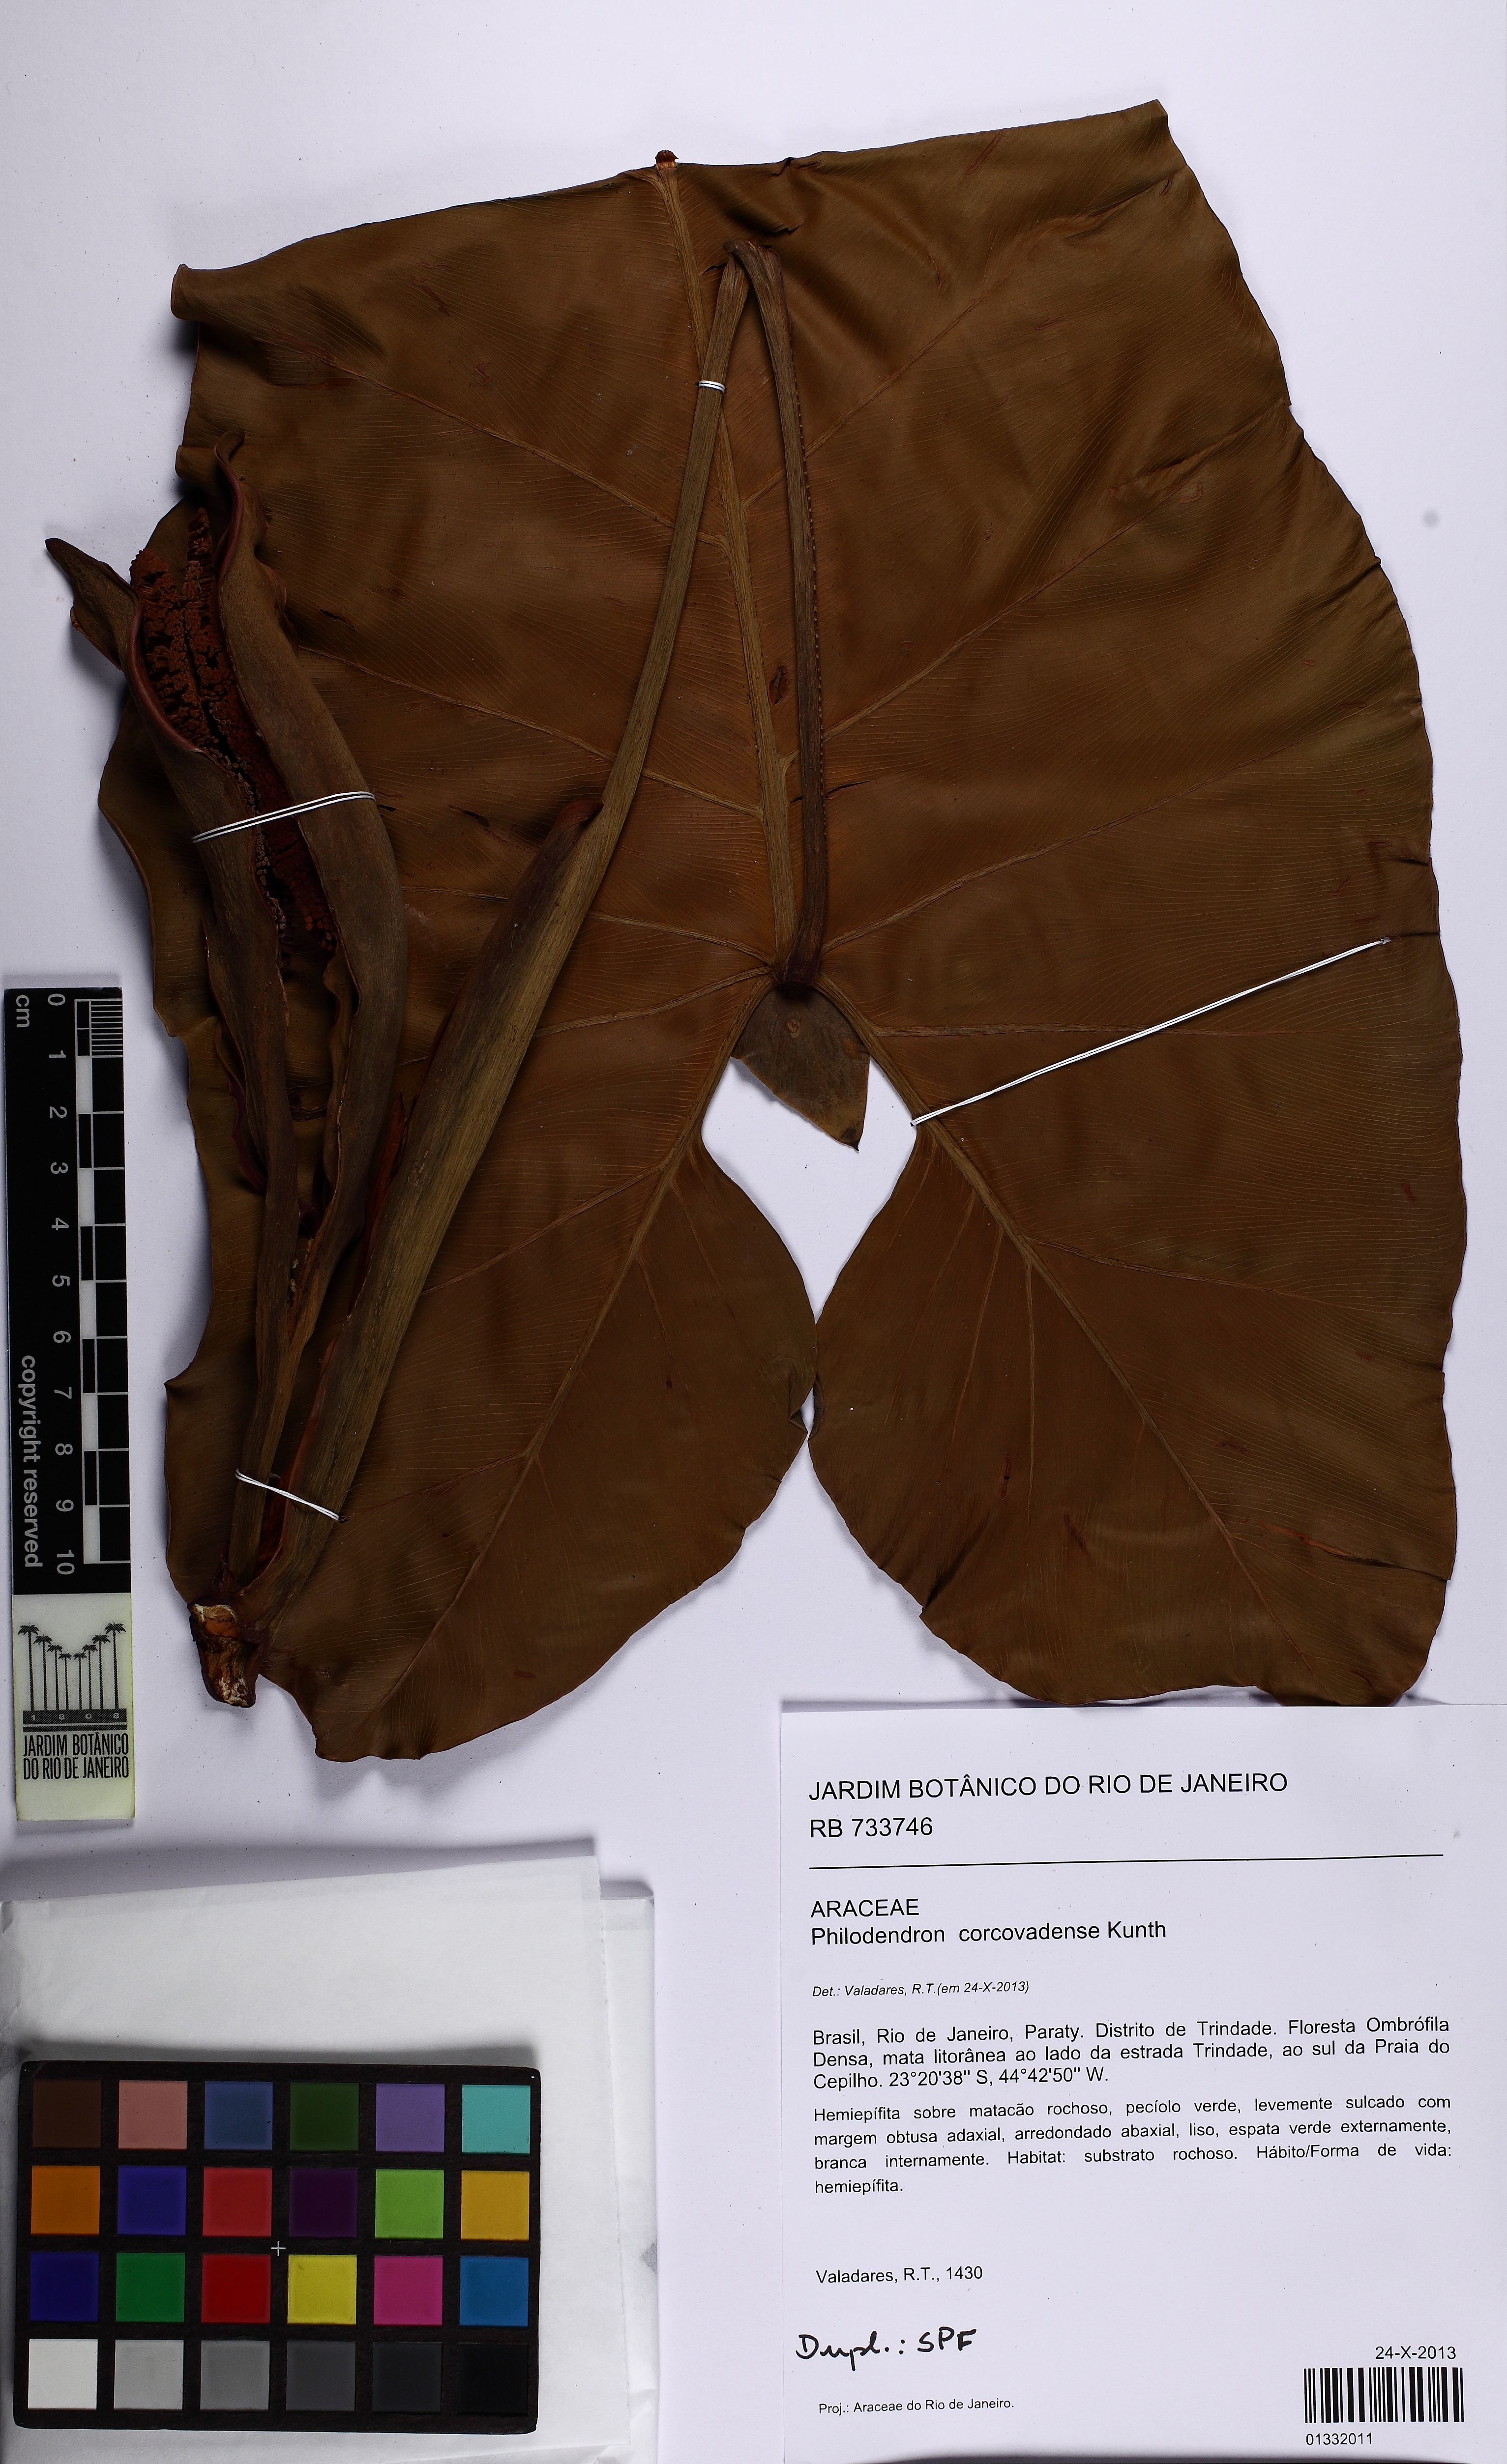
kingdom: Plantae
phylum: Tracheophyta
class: Liliopsida
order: Alismatales
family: Araceae
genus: Thaumatophyllum
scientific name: Thaumatophyllum corcovadense
